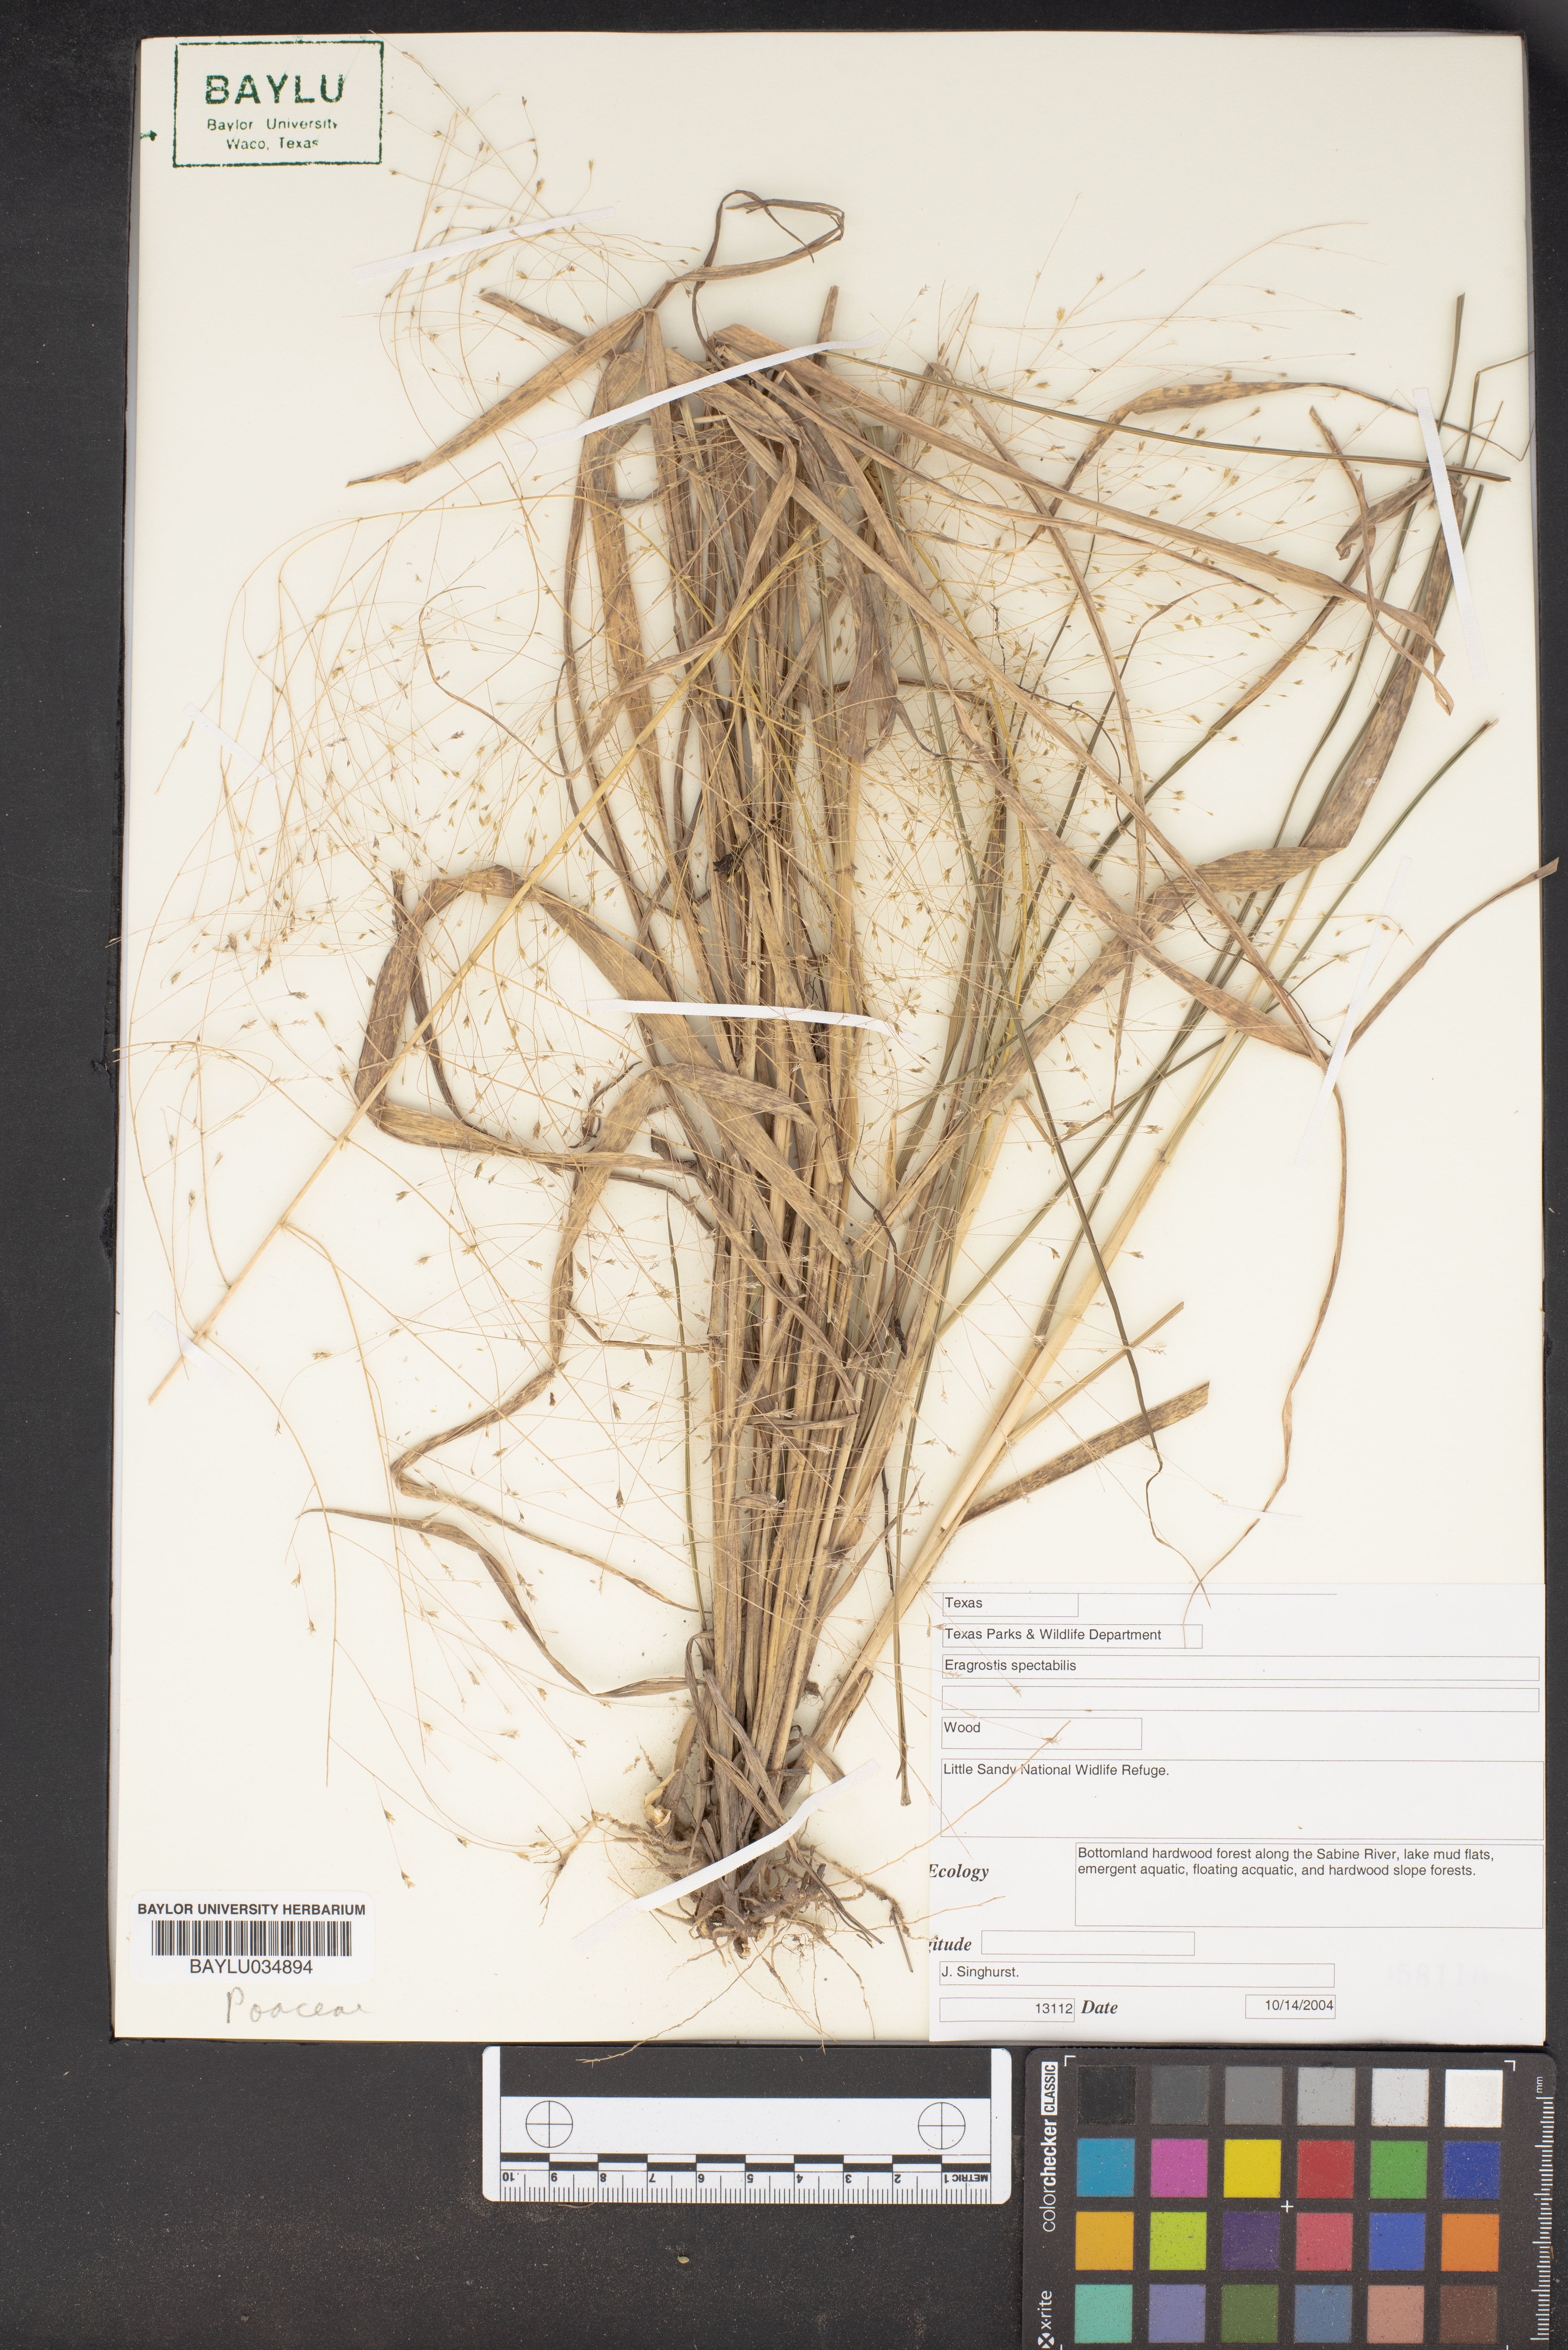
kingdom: Plantae
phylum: Tracheophyta
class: Liliopsida
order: Poales
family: Poaceae
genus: Eragrostis
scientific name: Eragrostis spectabilis
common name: Petticoat-climber
